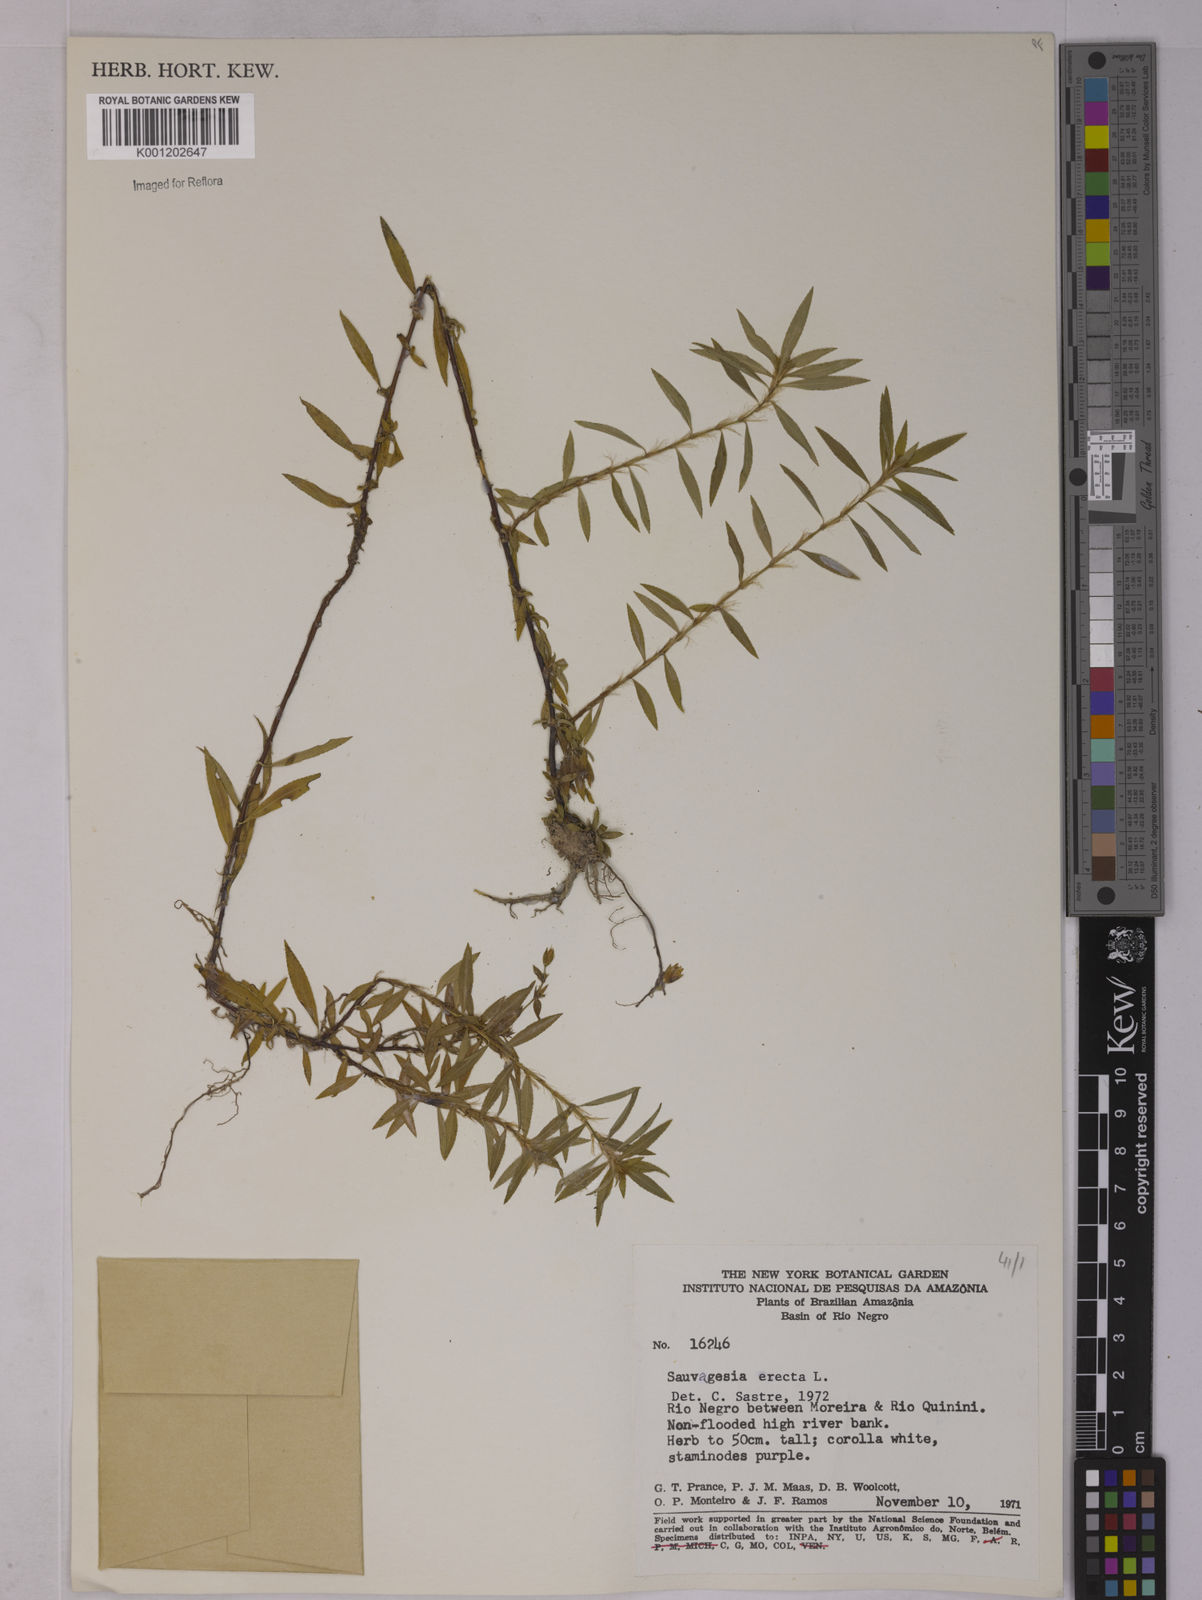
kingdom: Plantae
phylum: Tracheophyta
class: Magnoliopsida
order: Malpighiales
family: Ochnaceae
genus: Sauvagesia
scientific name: Sauvagesia erecta
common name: Creole tea
